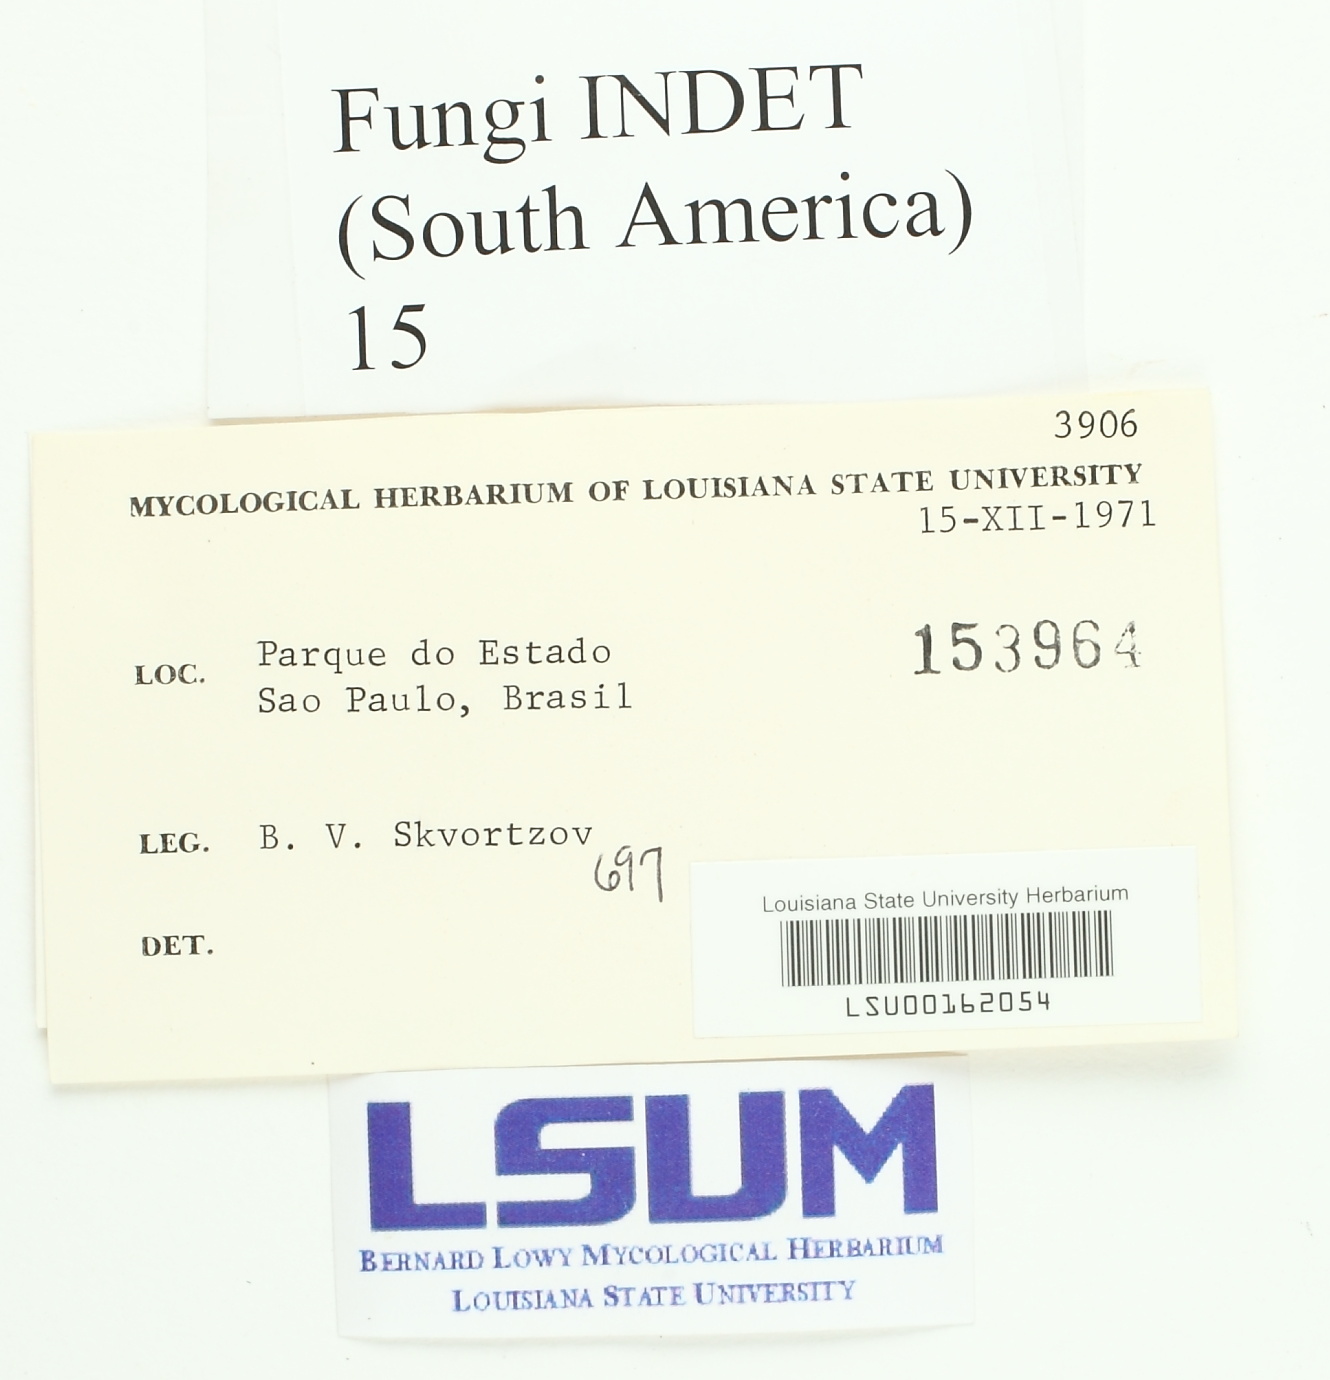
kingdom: Fungi
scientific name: Fungi
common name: Fungi
